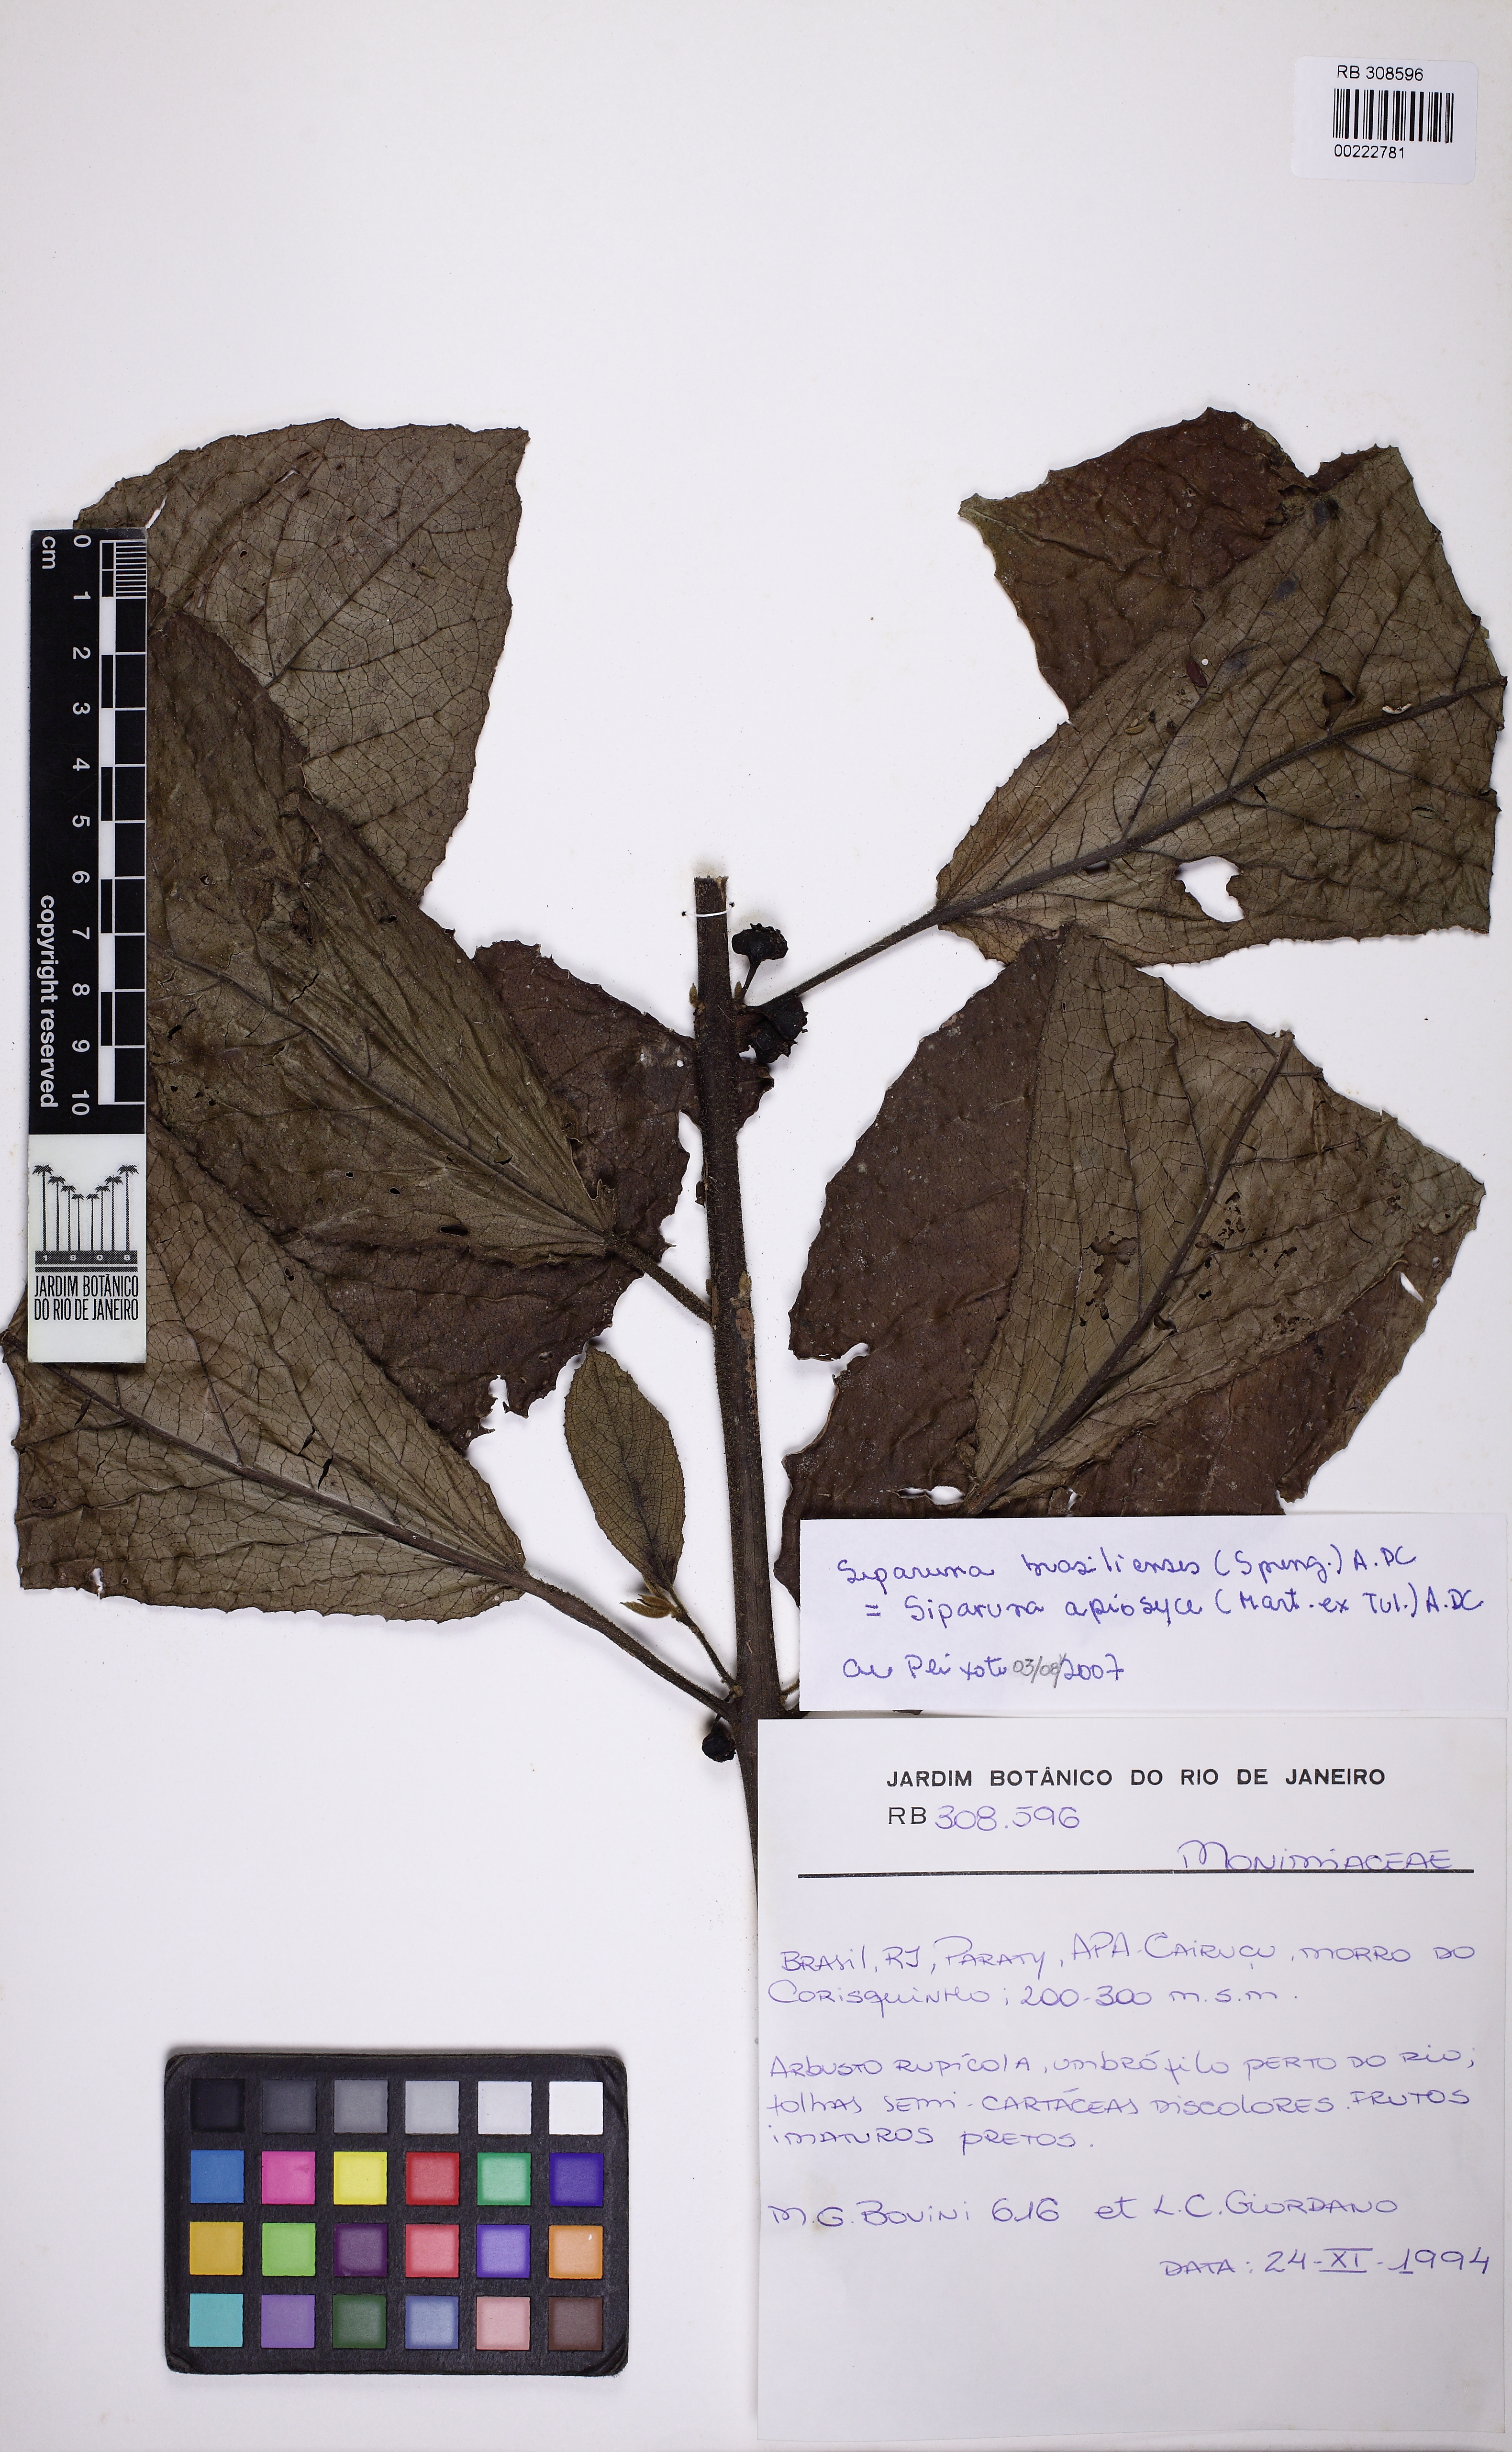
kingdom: Plantae
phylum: Tracheophyta
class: Magnoliopsida
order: Laurales
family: Siparunaceae
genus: Siparuna
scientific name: Siparuna brasiliensis
